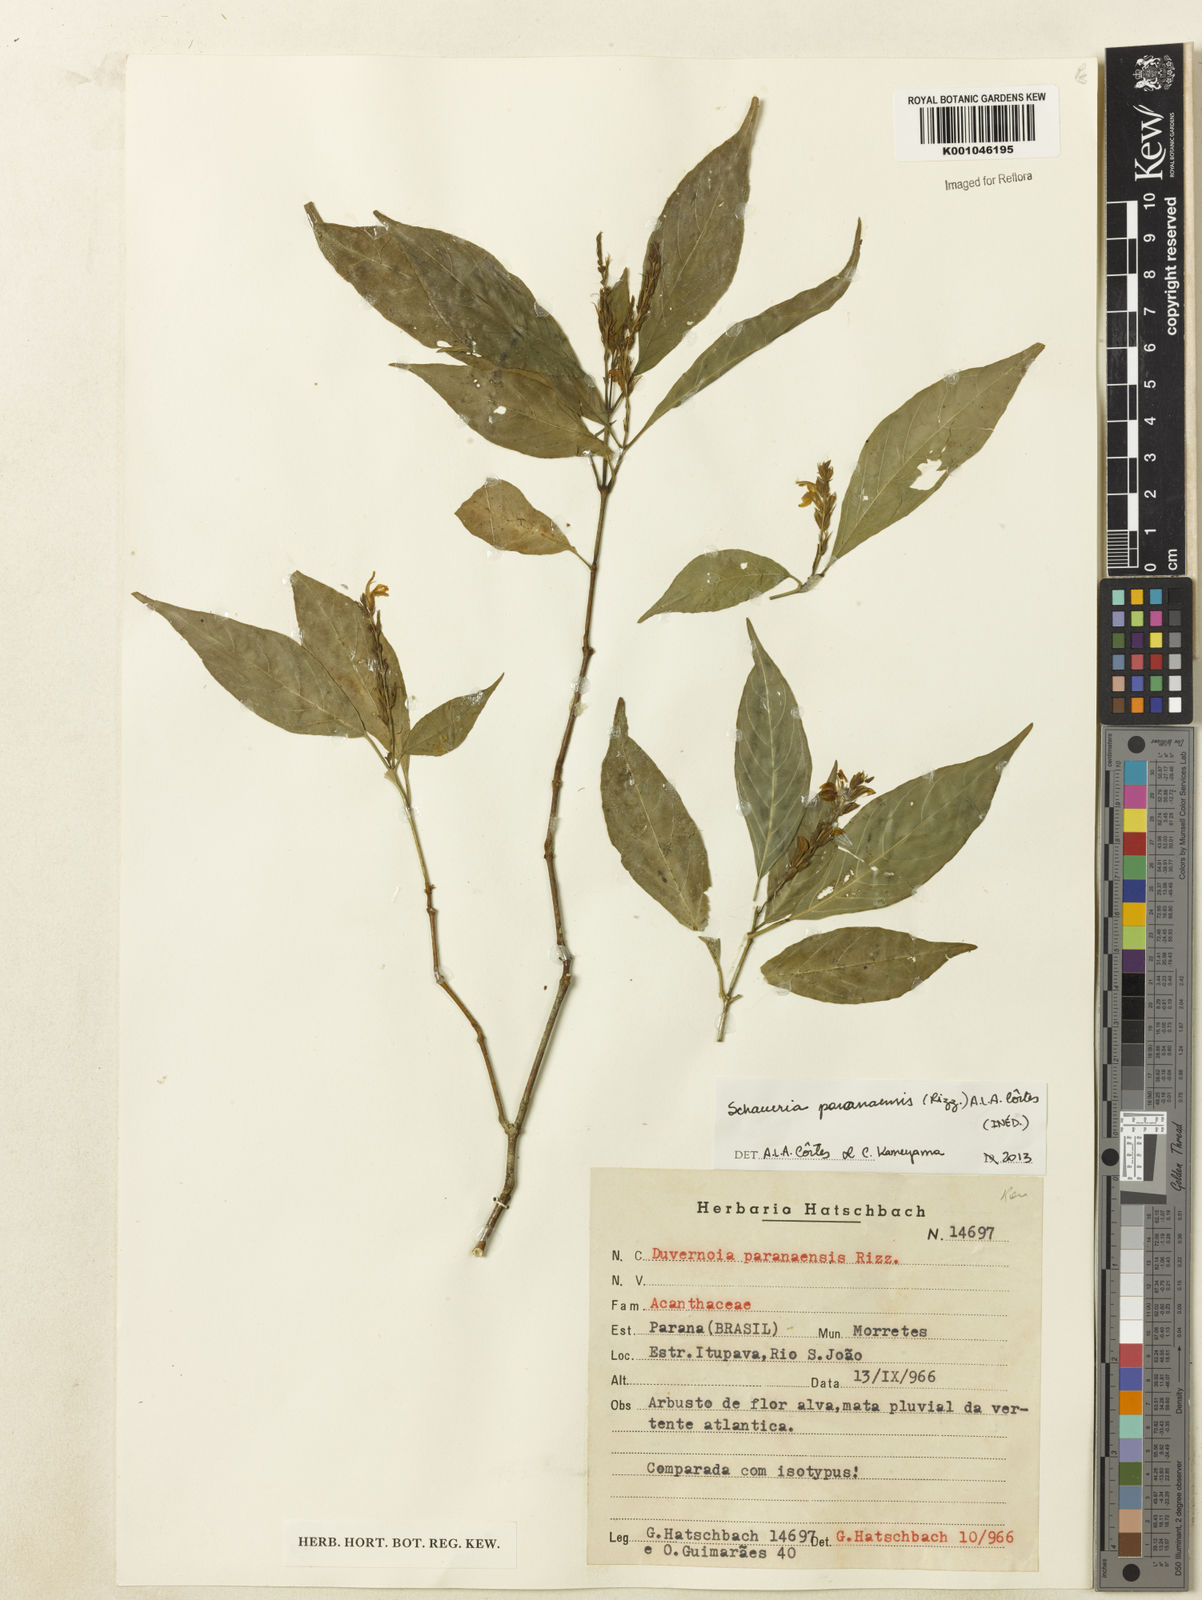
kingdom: Plantae
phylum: Tracheophyta
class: Magnoliopsida
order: Lamiales
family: Acanthaceae
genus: Schaueria
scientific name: Schaueria paranaensis
